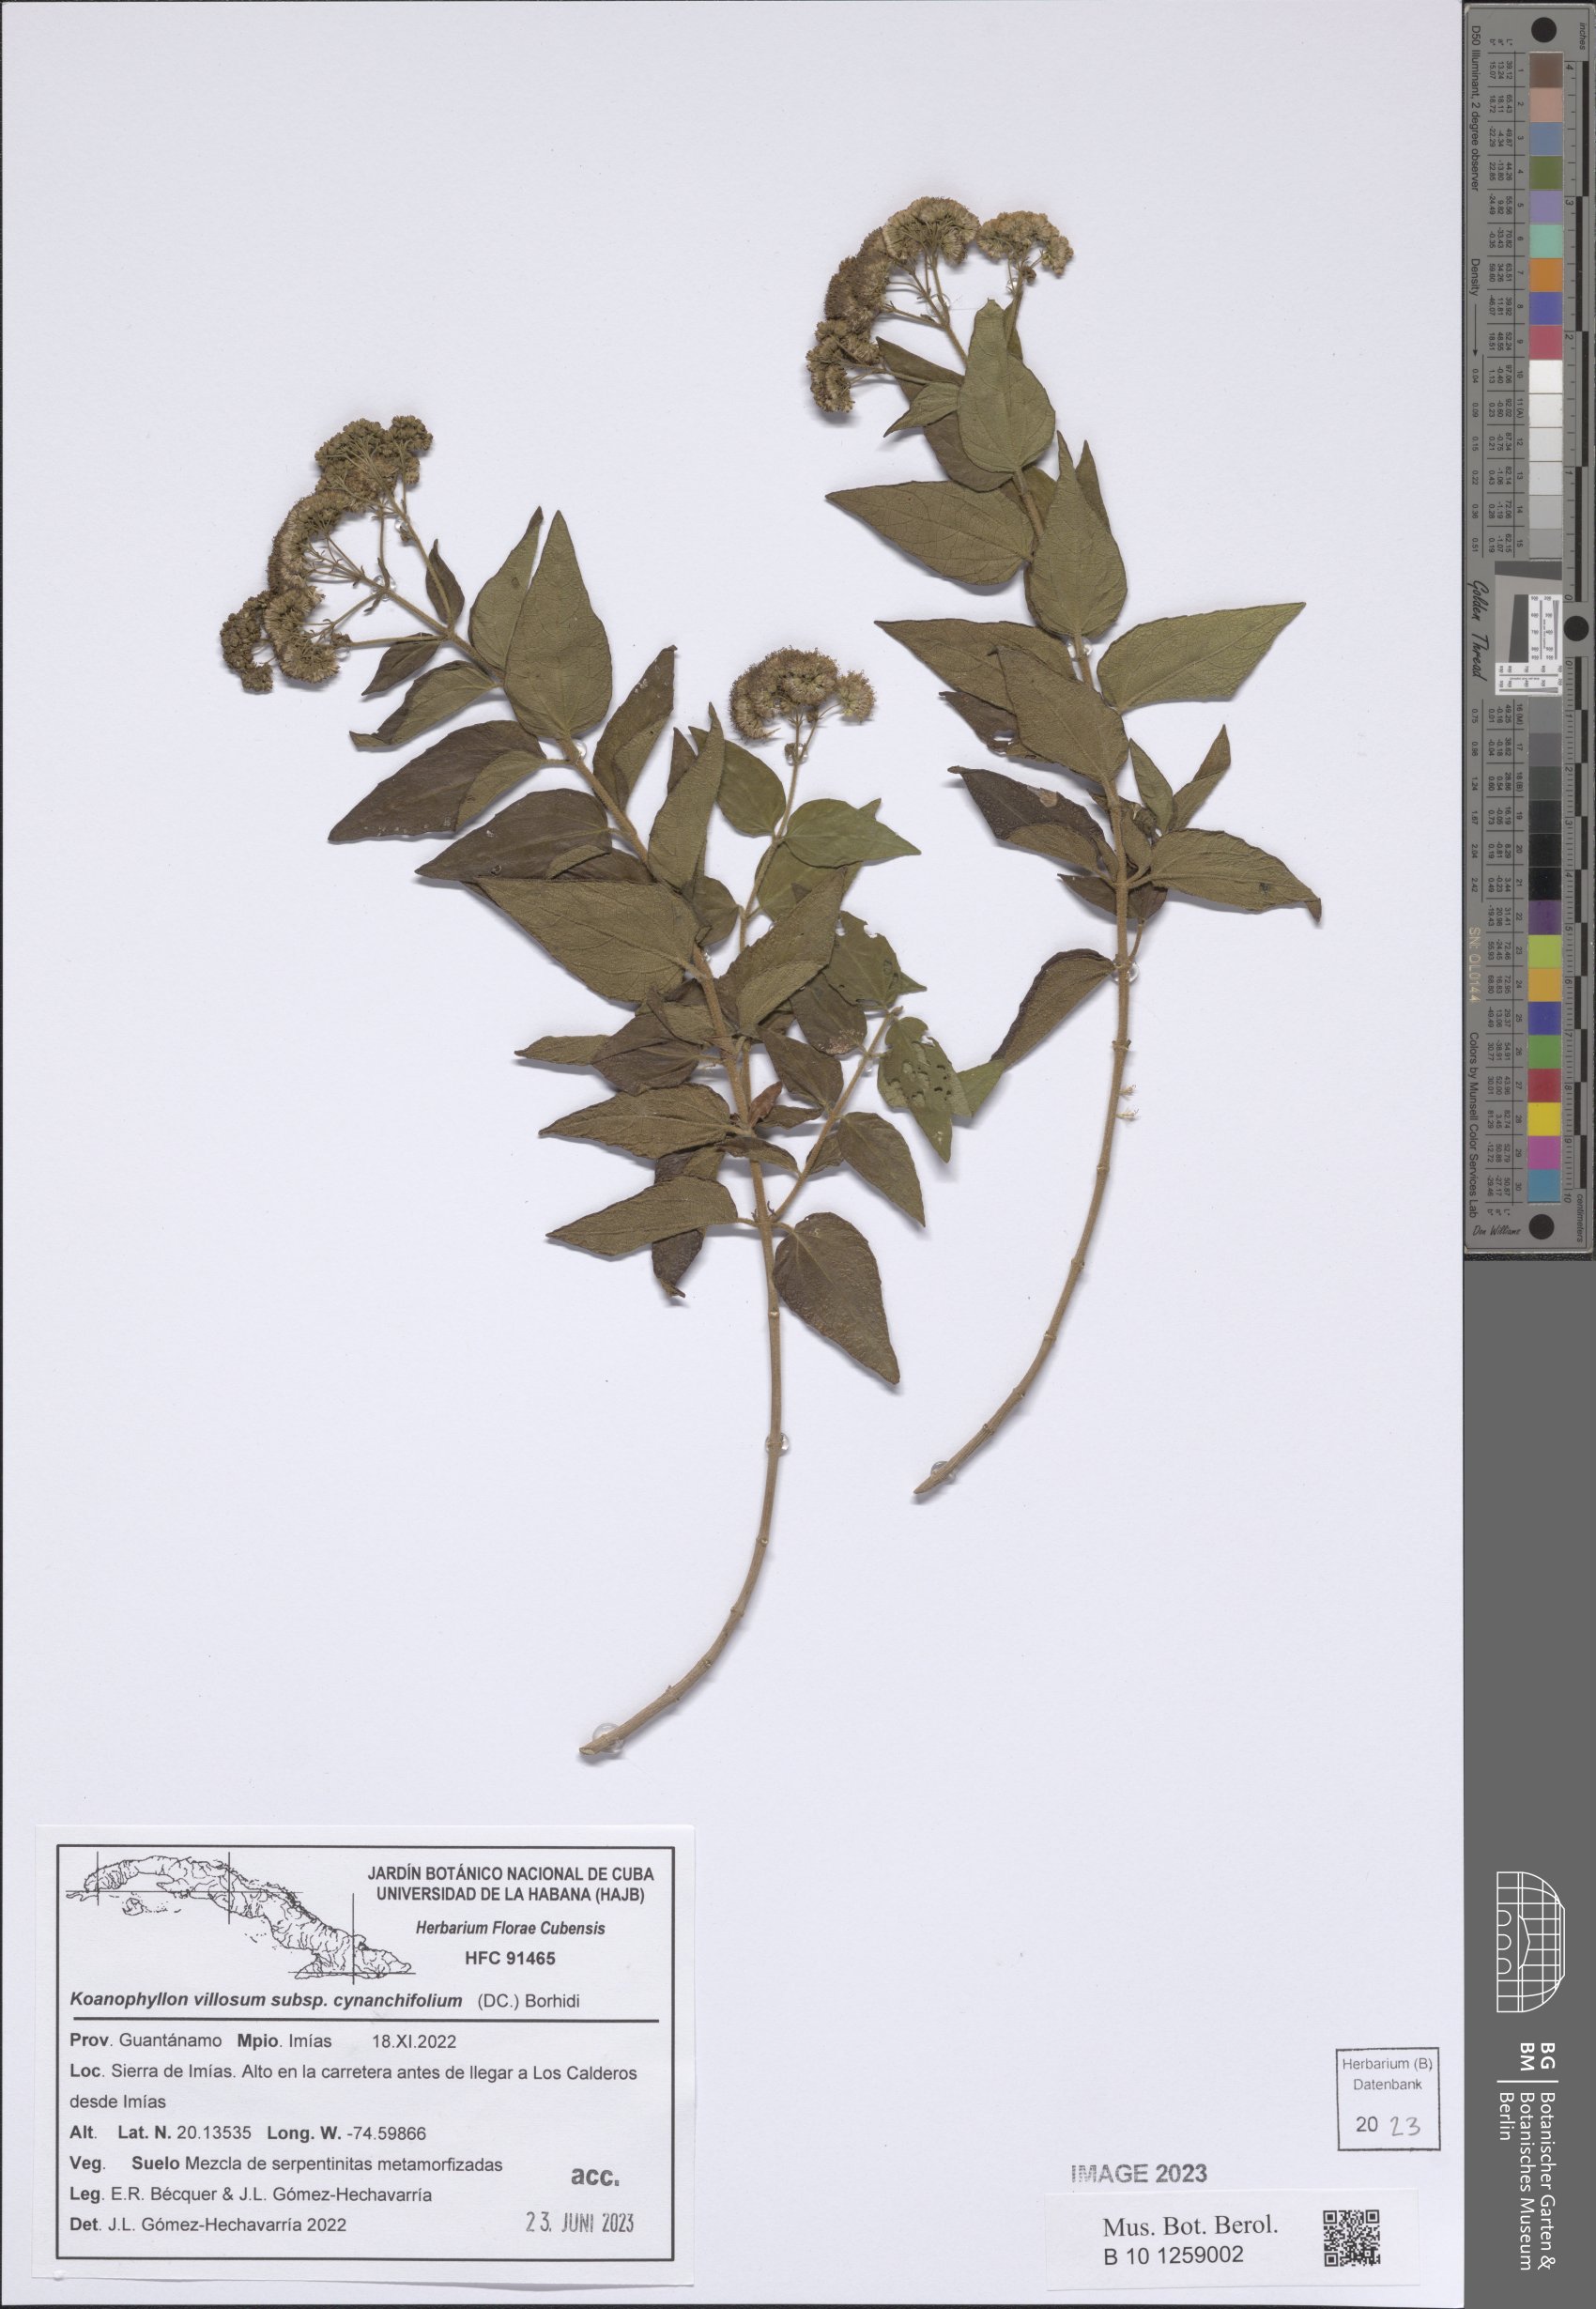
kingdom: Plantae
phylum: Tracheophyta
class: Magnoliopsida
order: Asterales
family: Asteraceae
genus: Koanophyllon
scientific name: Koanophyllon villosum
